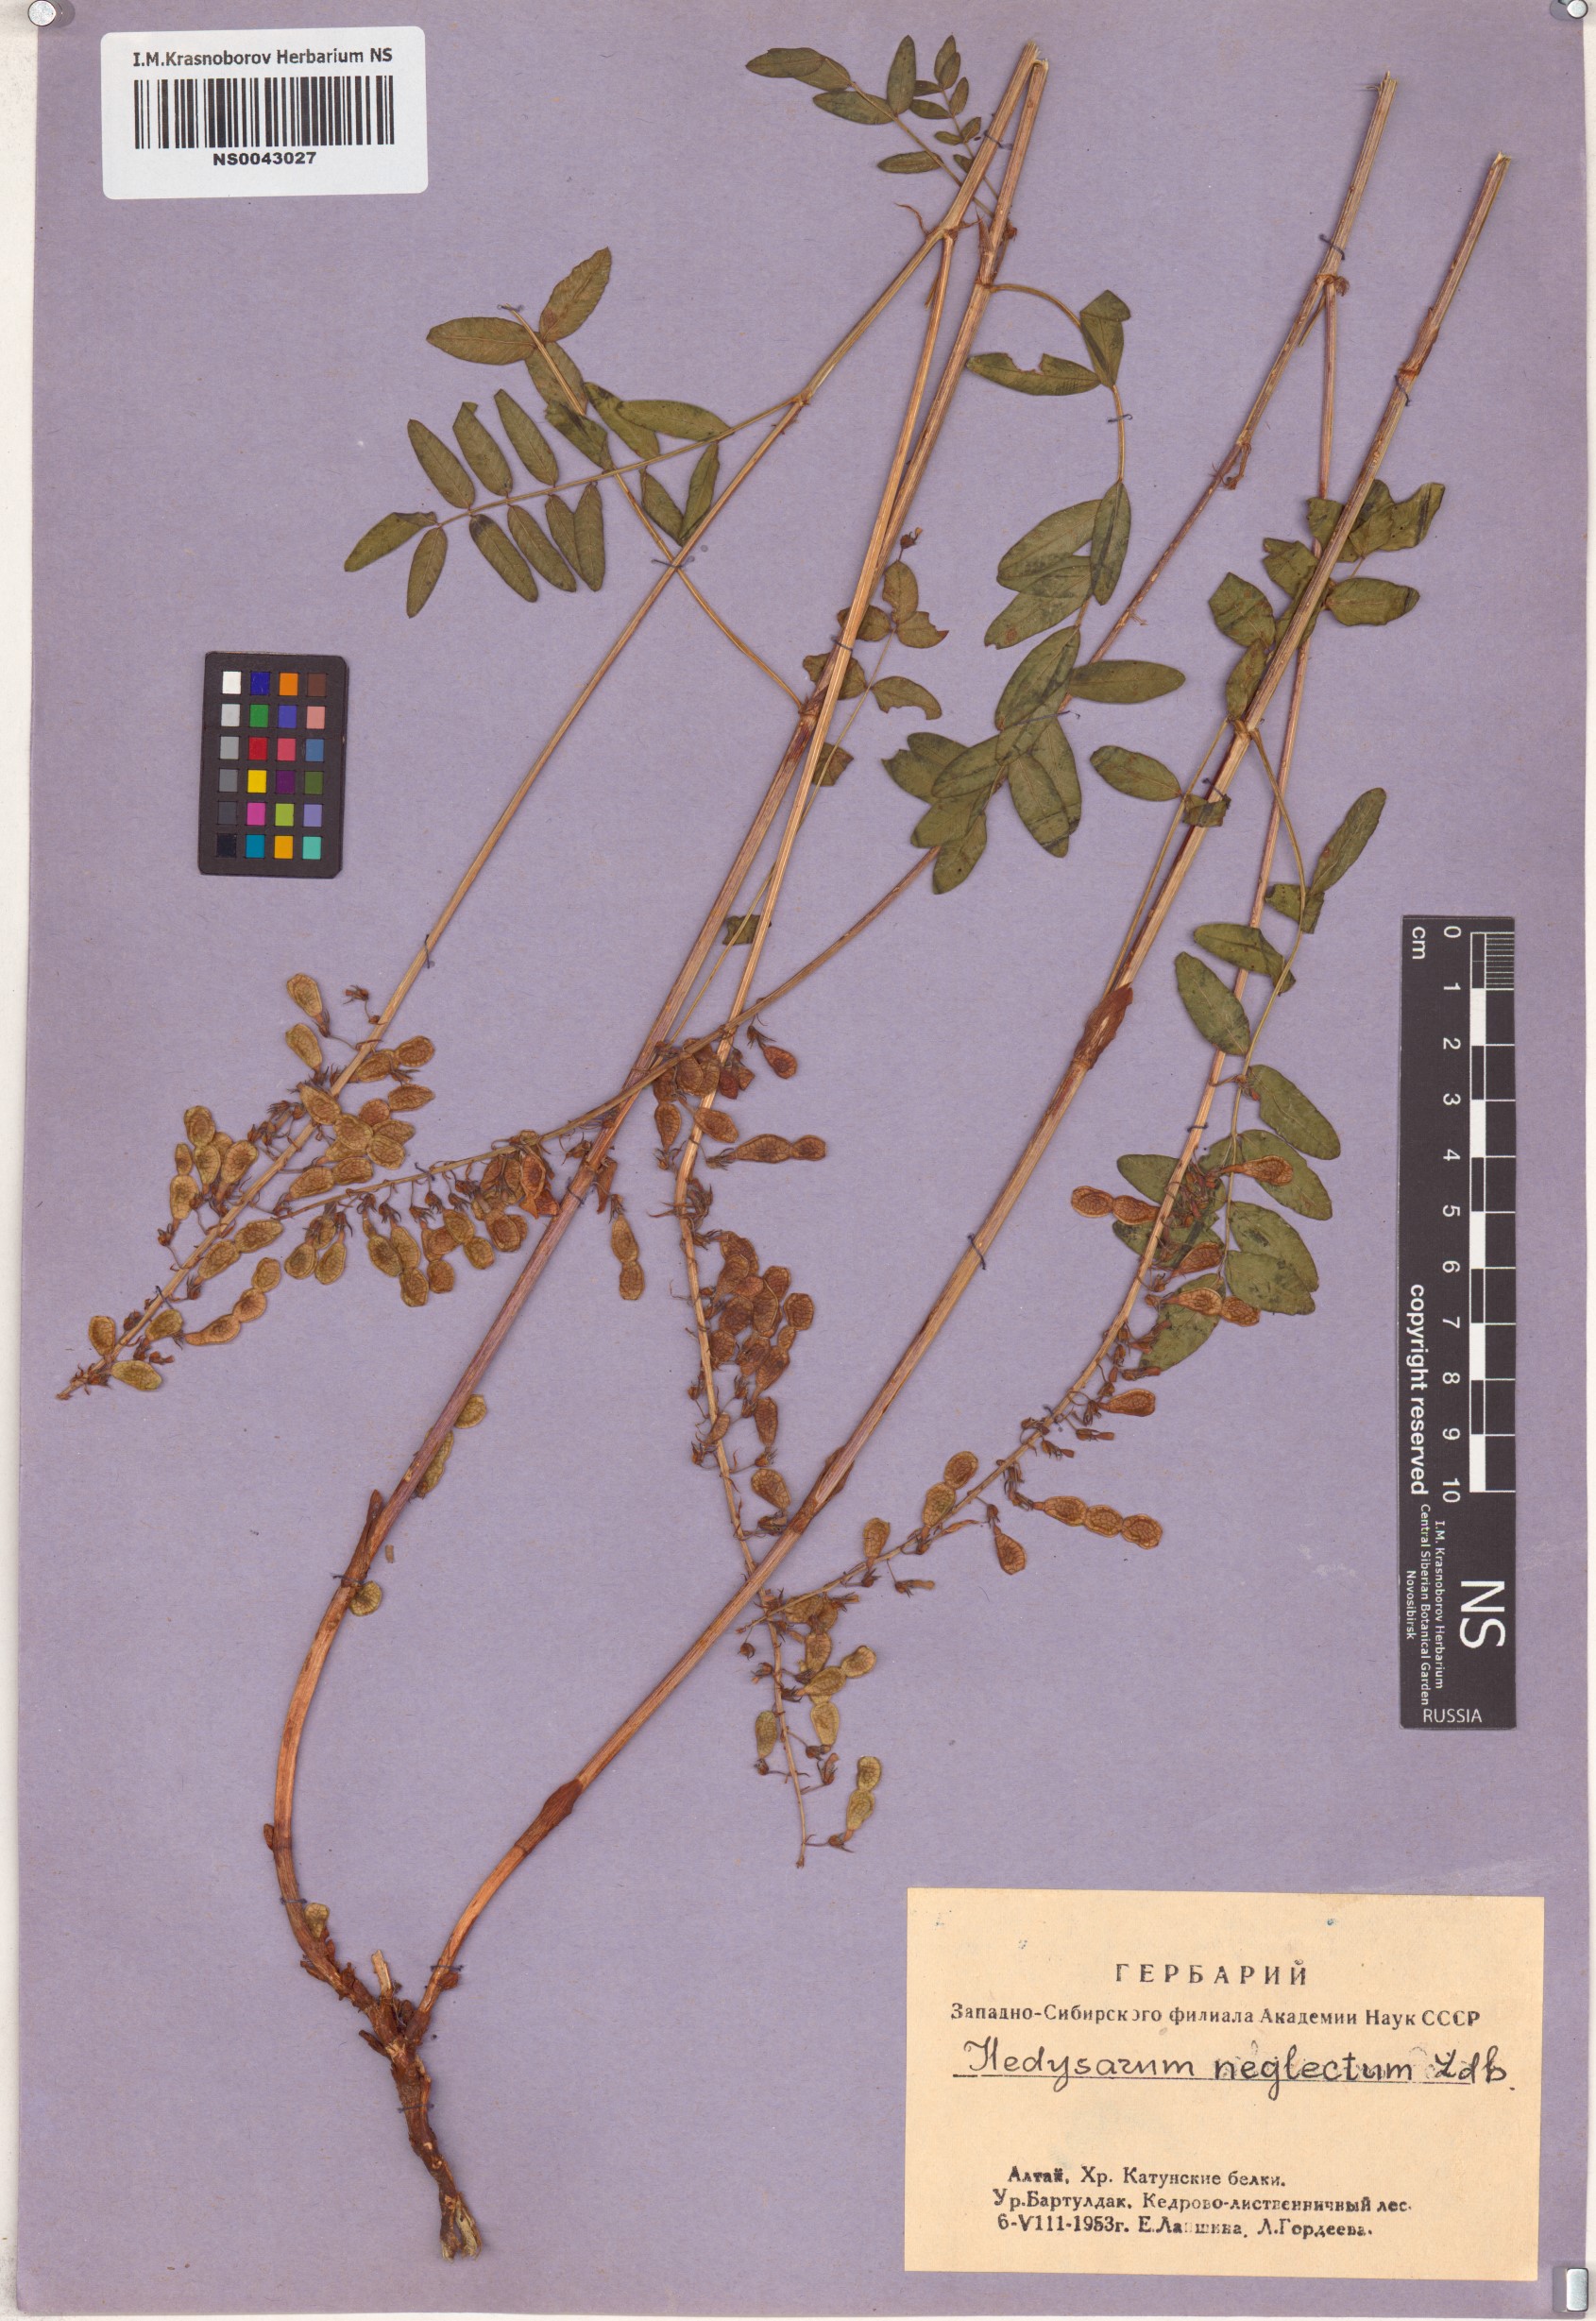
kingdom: Plantae
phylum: Tracheophyta
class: Magnoliopsida
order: Fabales
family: Fabaceae
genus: Hedysarum
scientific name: Hedysarum neglectum
